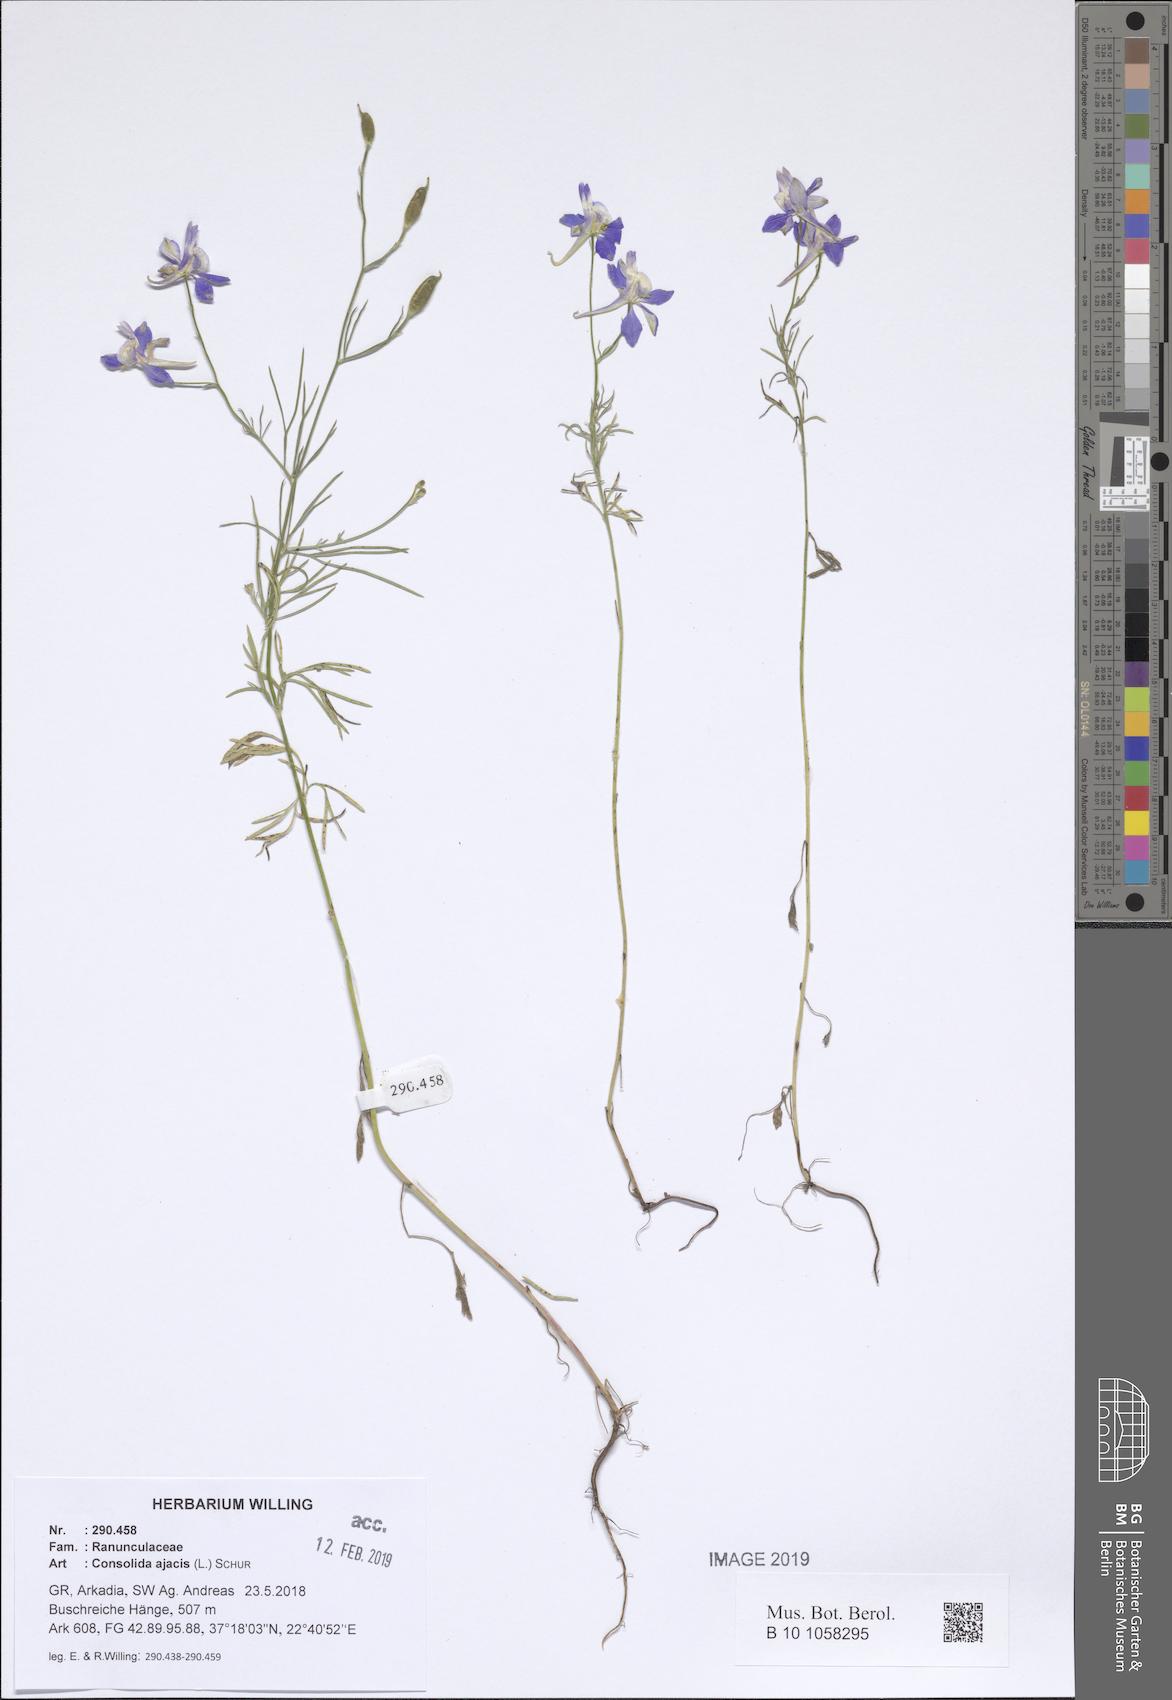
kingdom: Plantae
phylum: Tracheophyta
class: Magnoliopsida
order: Ranunculales
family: Ranunculaceae
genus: Delphinium
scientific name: Delphinium ajacis
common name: Doubtful knight's-spur
